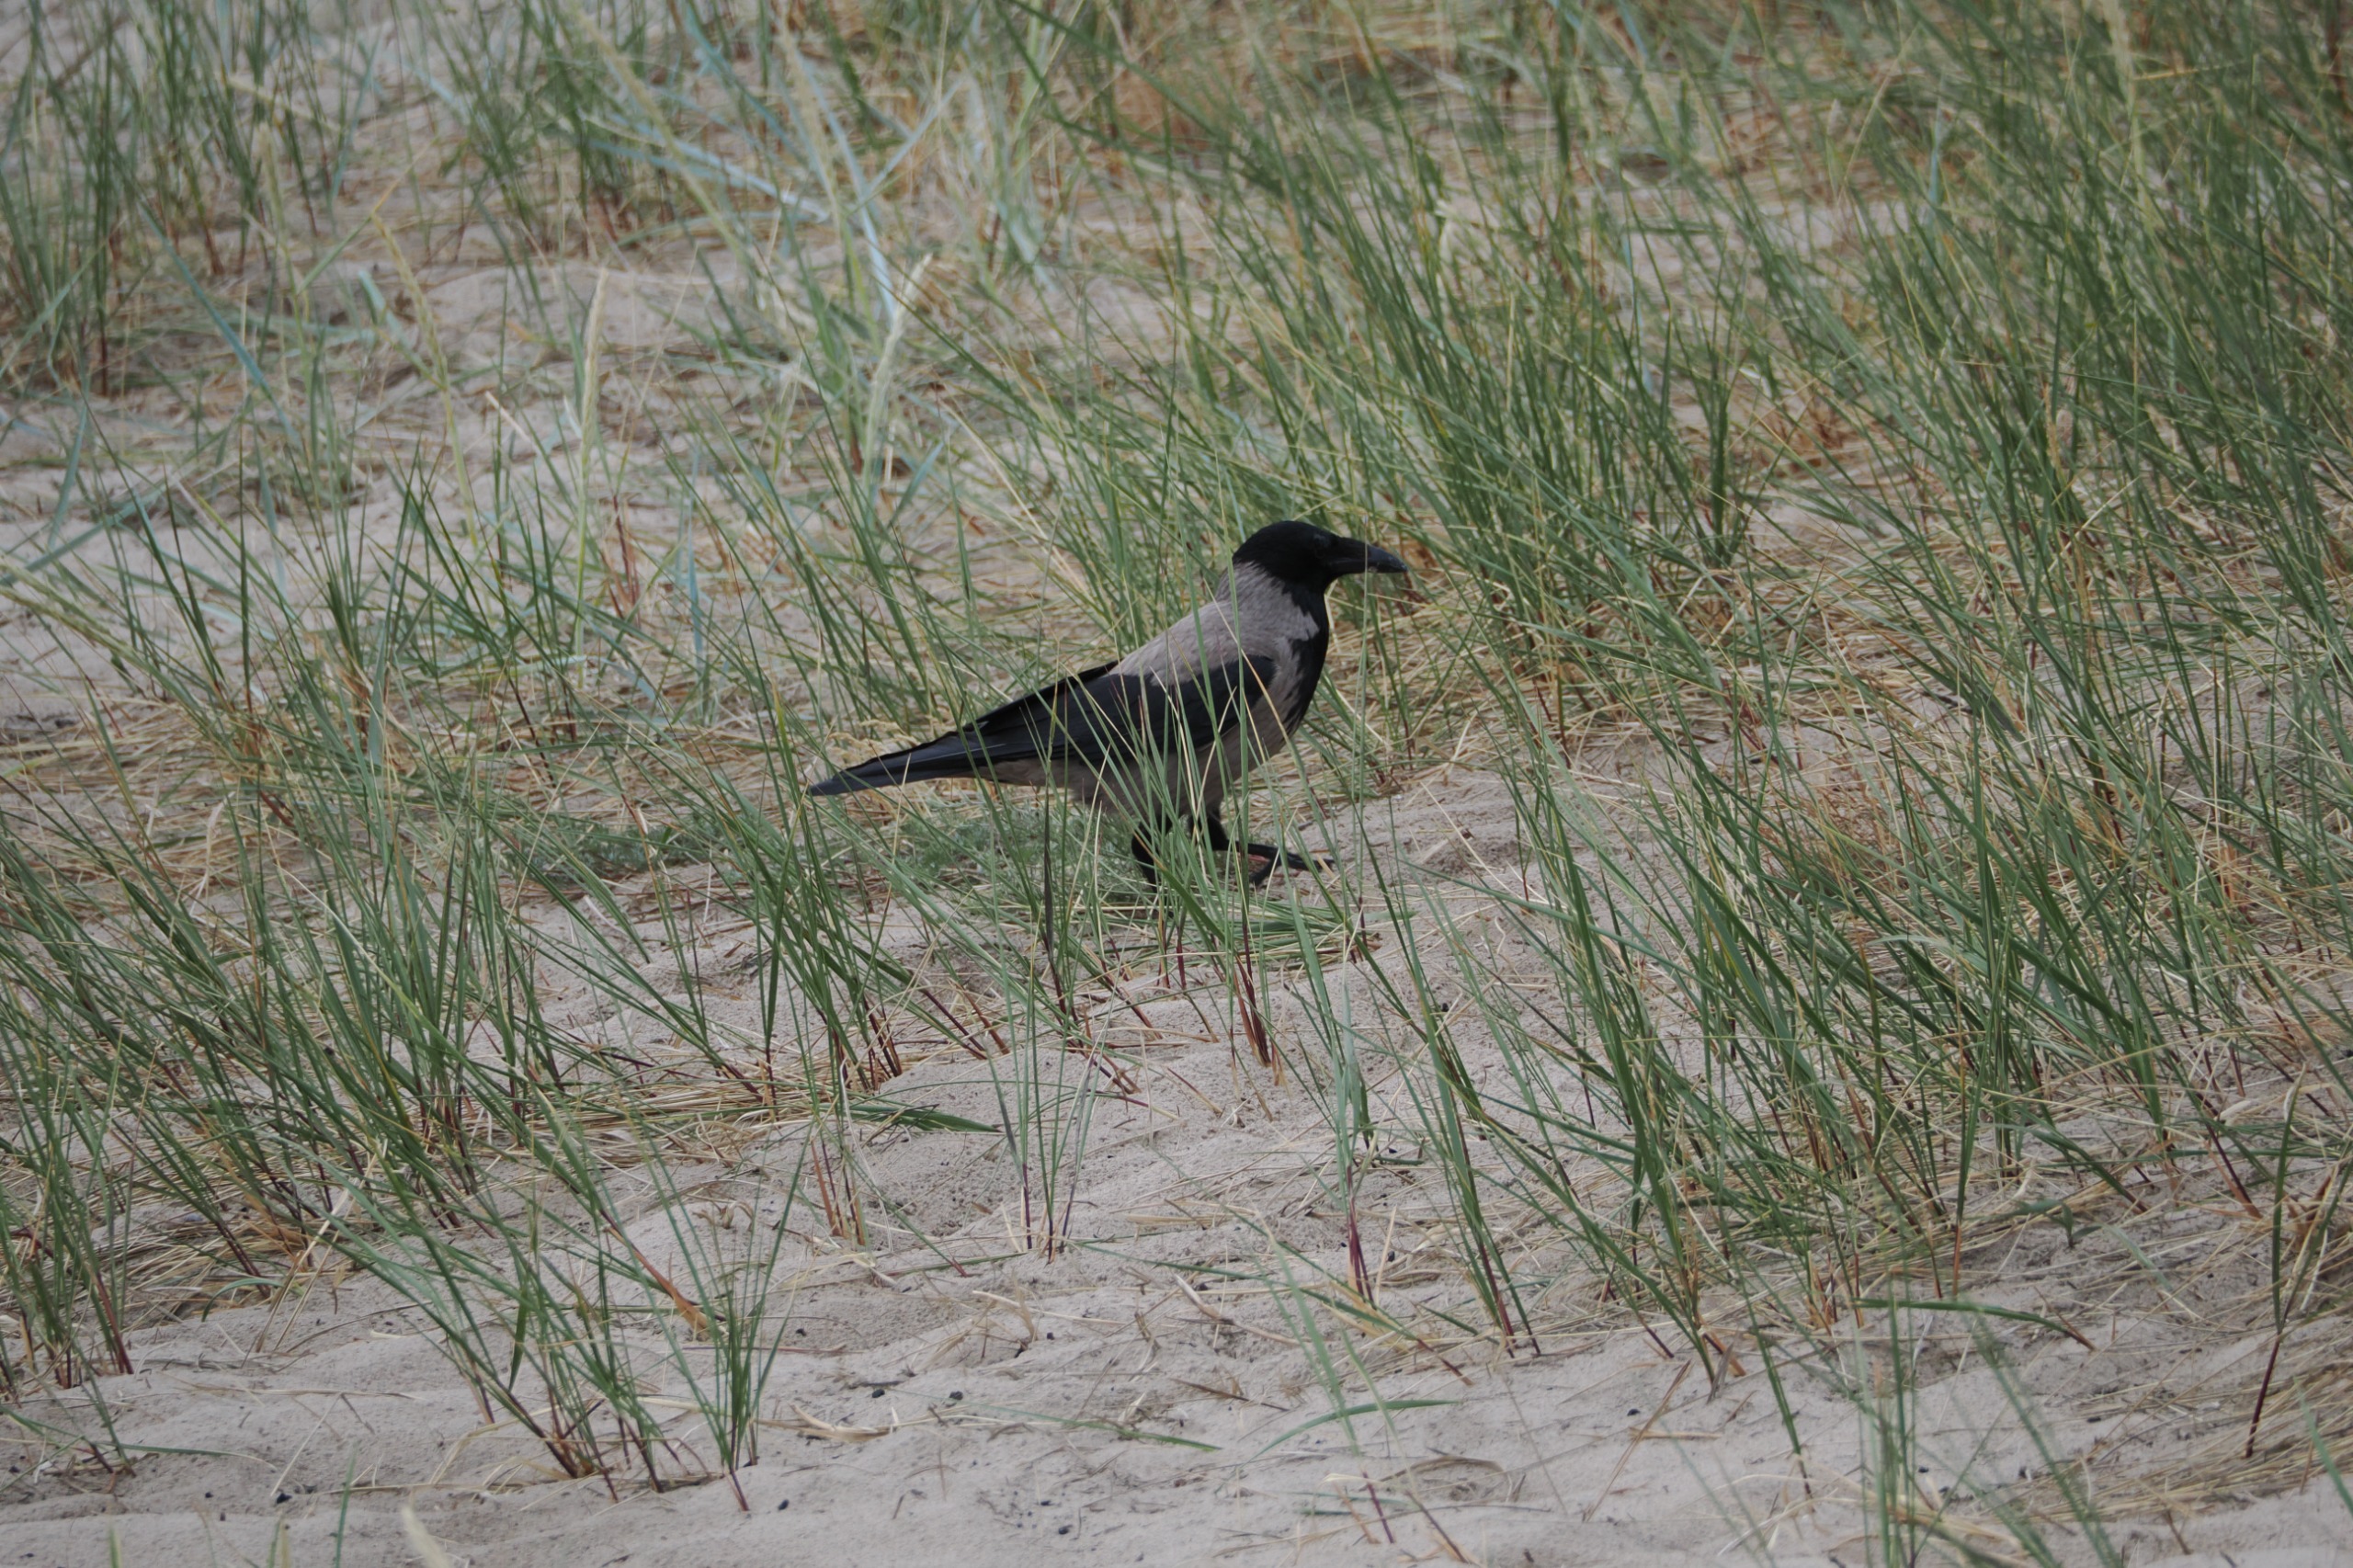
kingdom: Animalia
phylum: Chordata
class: Aves
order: Passeriformes
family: Corvidae
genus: Corvus
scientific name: Corvus cornix
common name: Gråkrage
